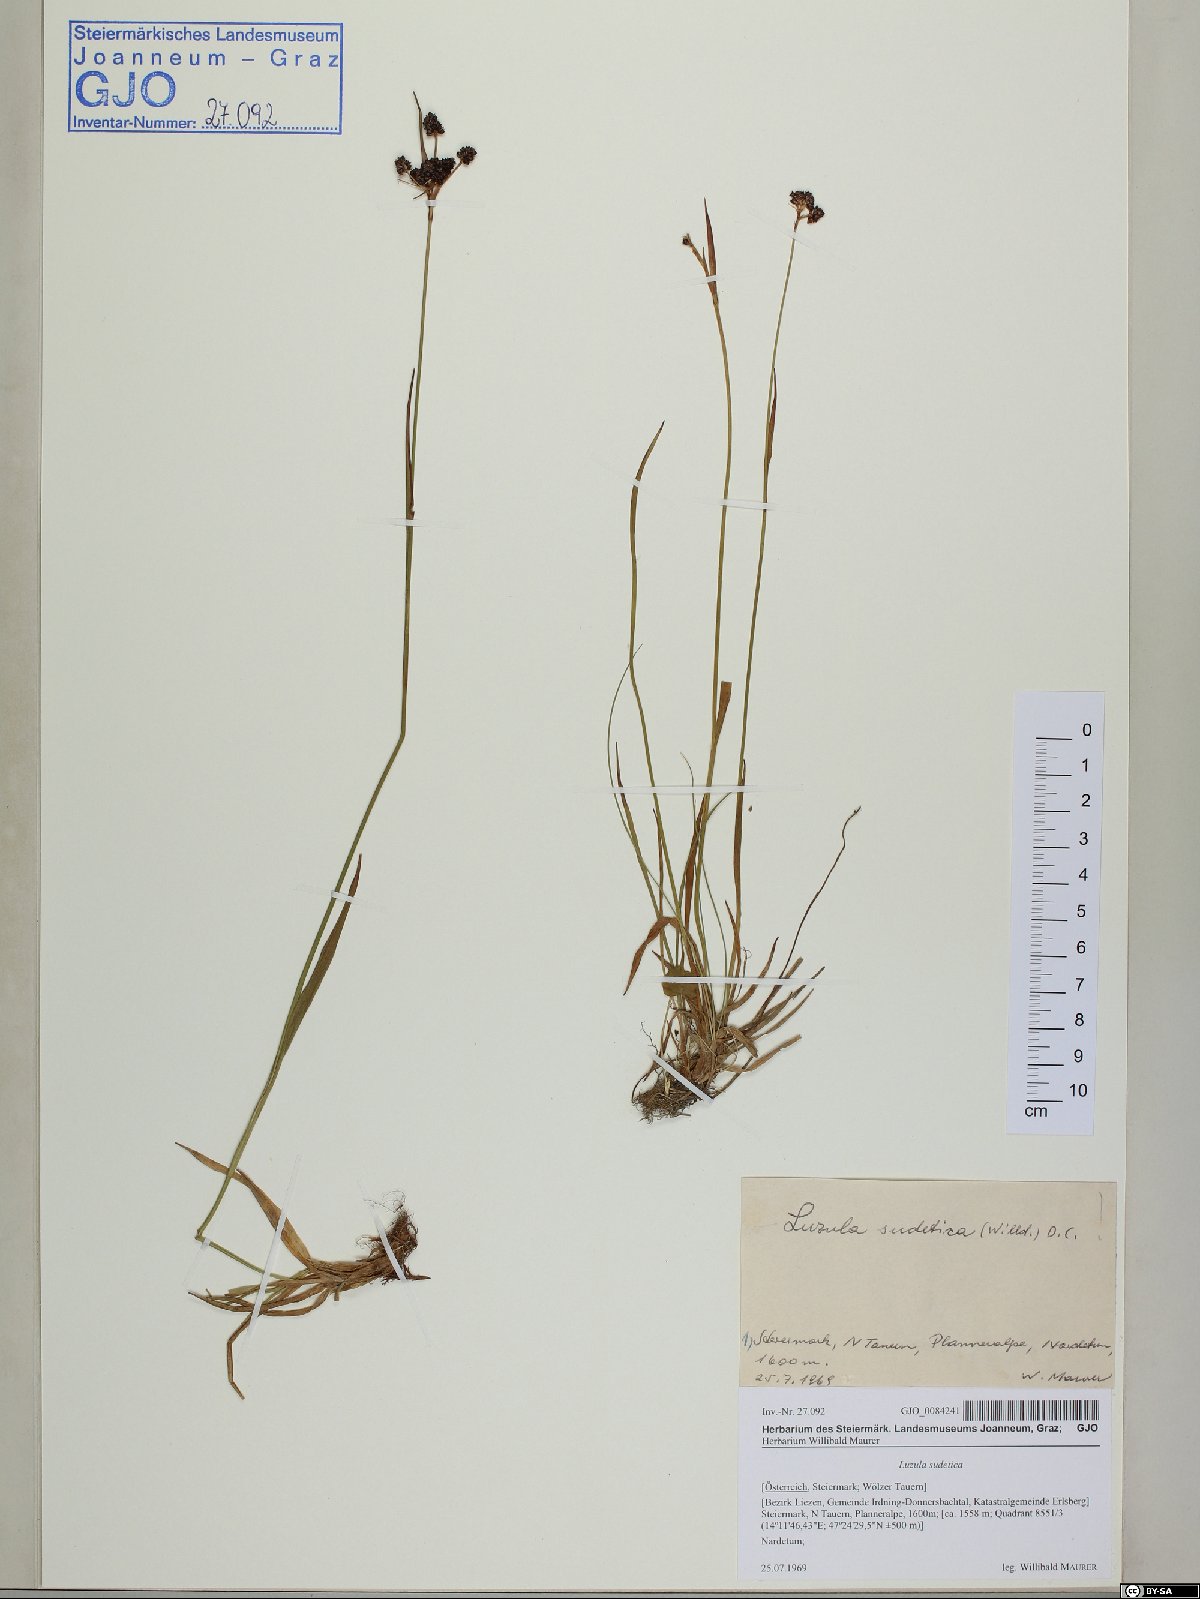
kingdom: Plantae
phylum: Tracheophyta
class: Liliopsida
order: Poales
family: Juncaceae
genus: Luzula
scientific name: Luzula sudetica
